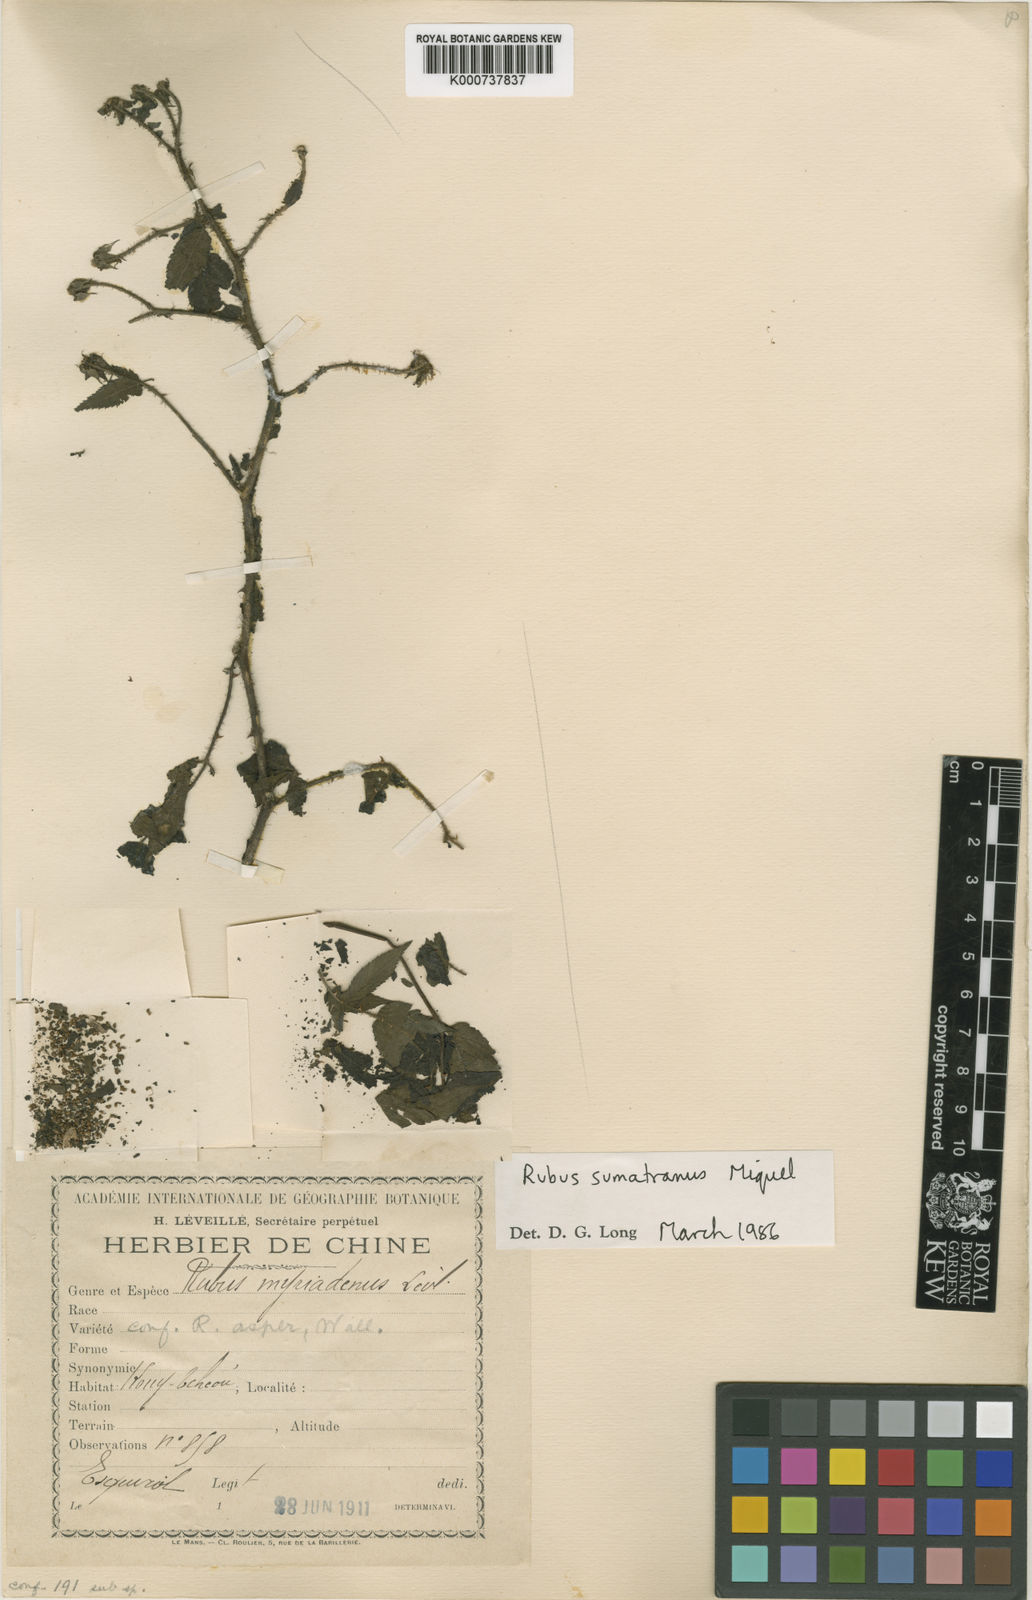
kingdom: Plantae
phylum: Tracheophyta
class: Magnoliopsida
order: Rosales
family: Rosaceae
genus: Rubus
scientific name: Rubus
